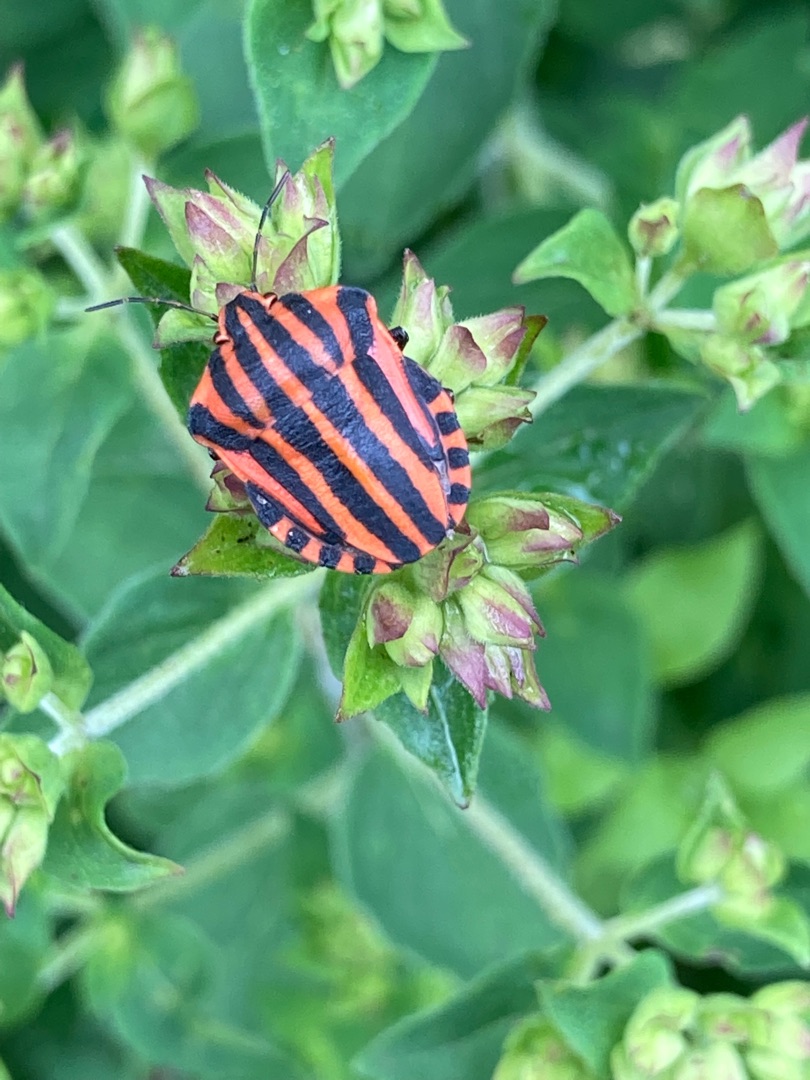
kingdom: Animalia
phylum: Arthropoda
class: Insecta
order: Hemiptera
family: Pentatomidae
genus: Graphosoma
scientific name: Graphosoma italicum
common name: Stribetæge
